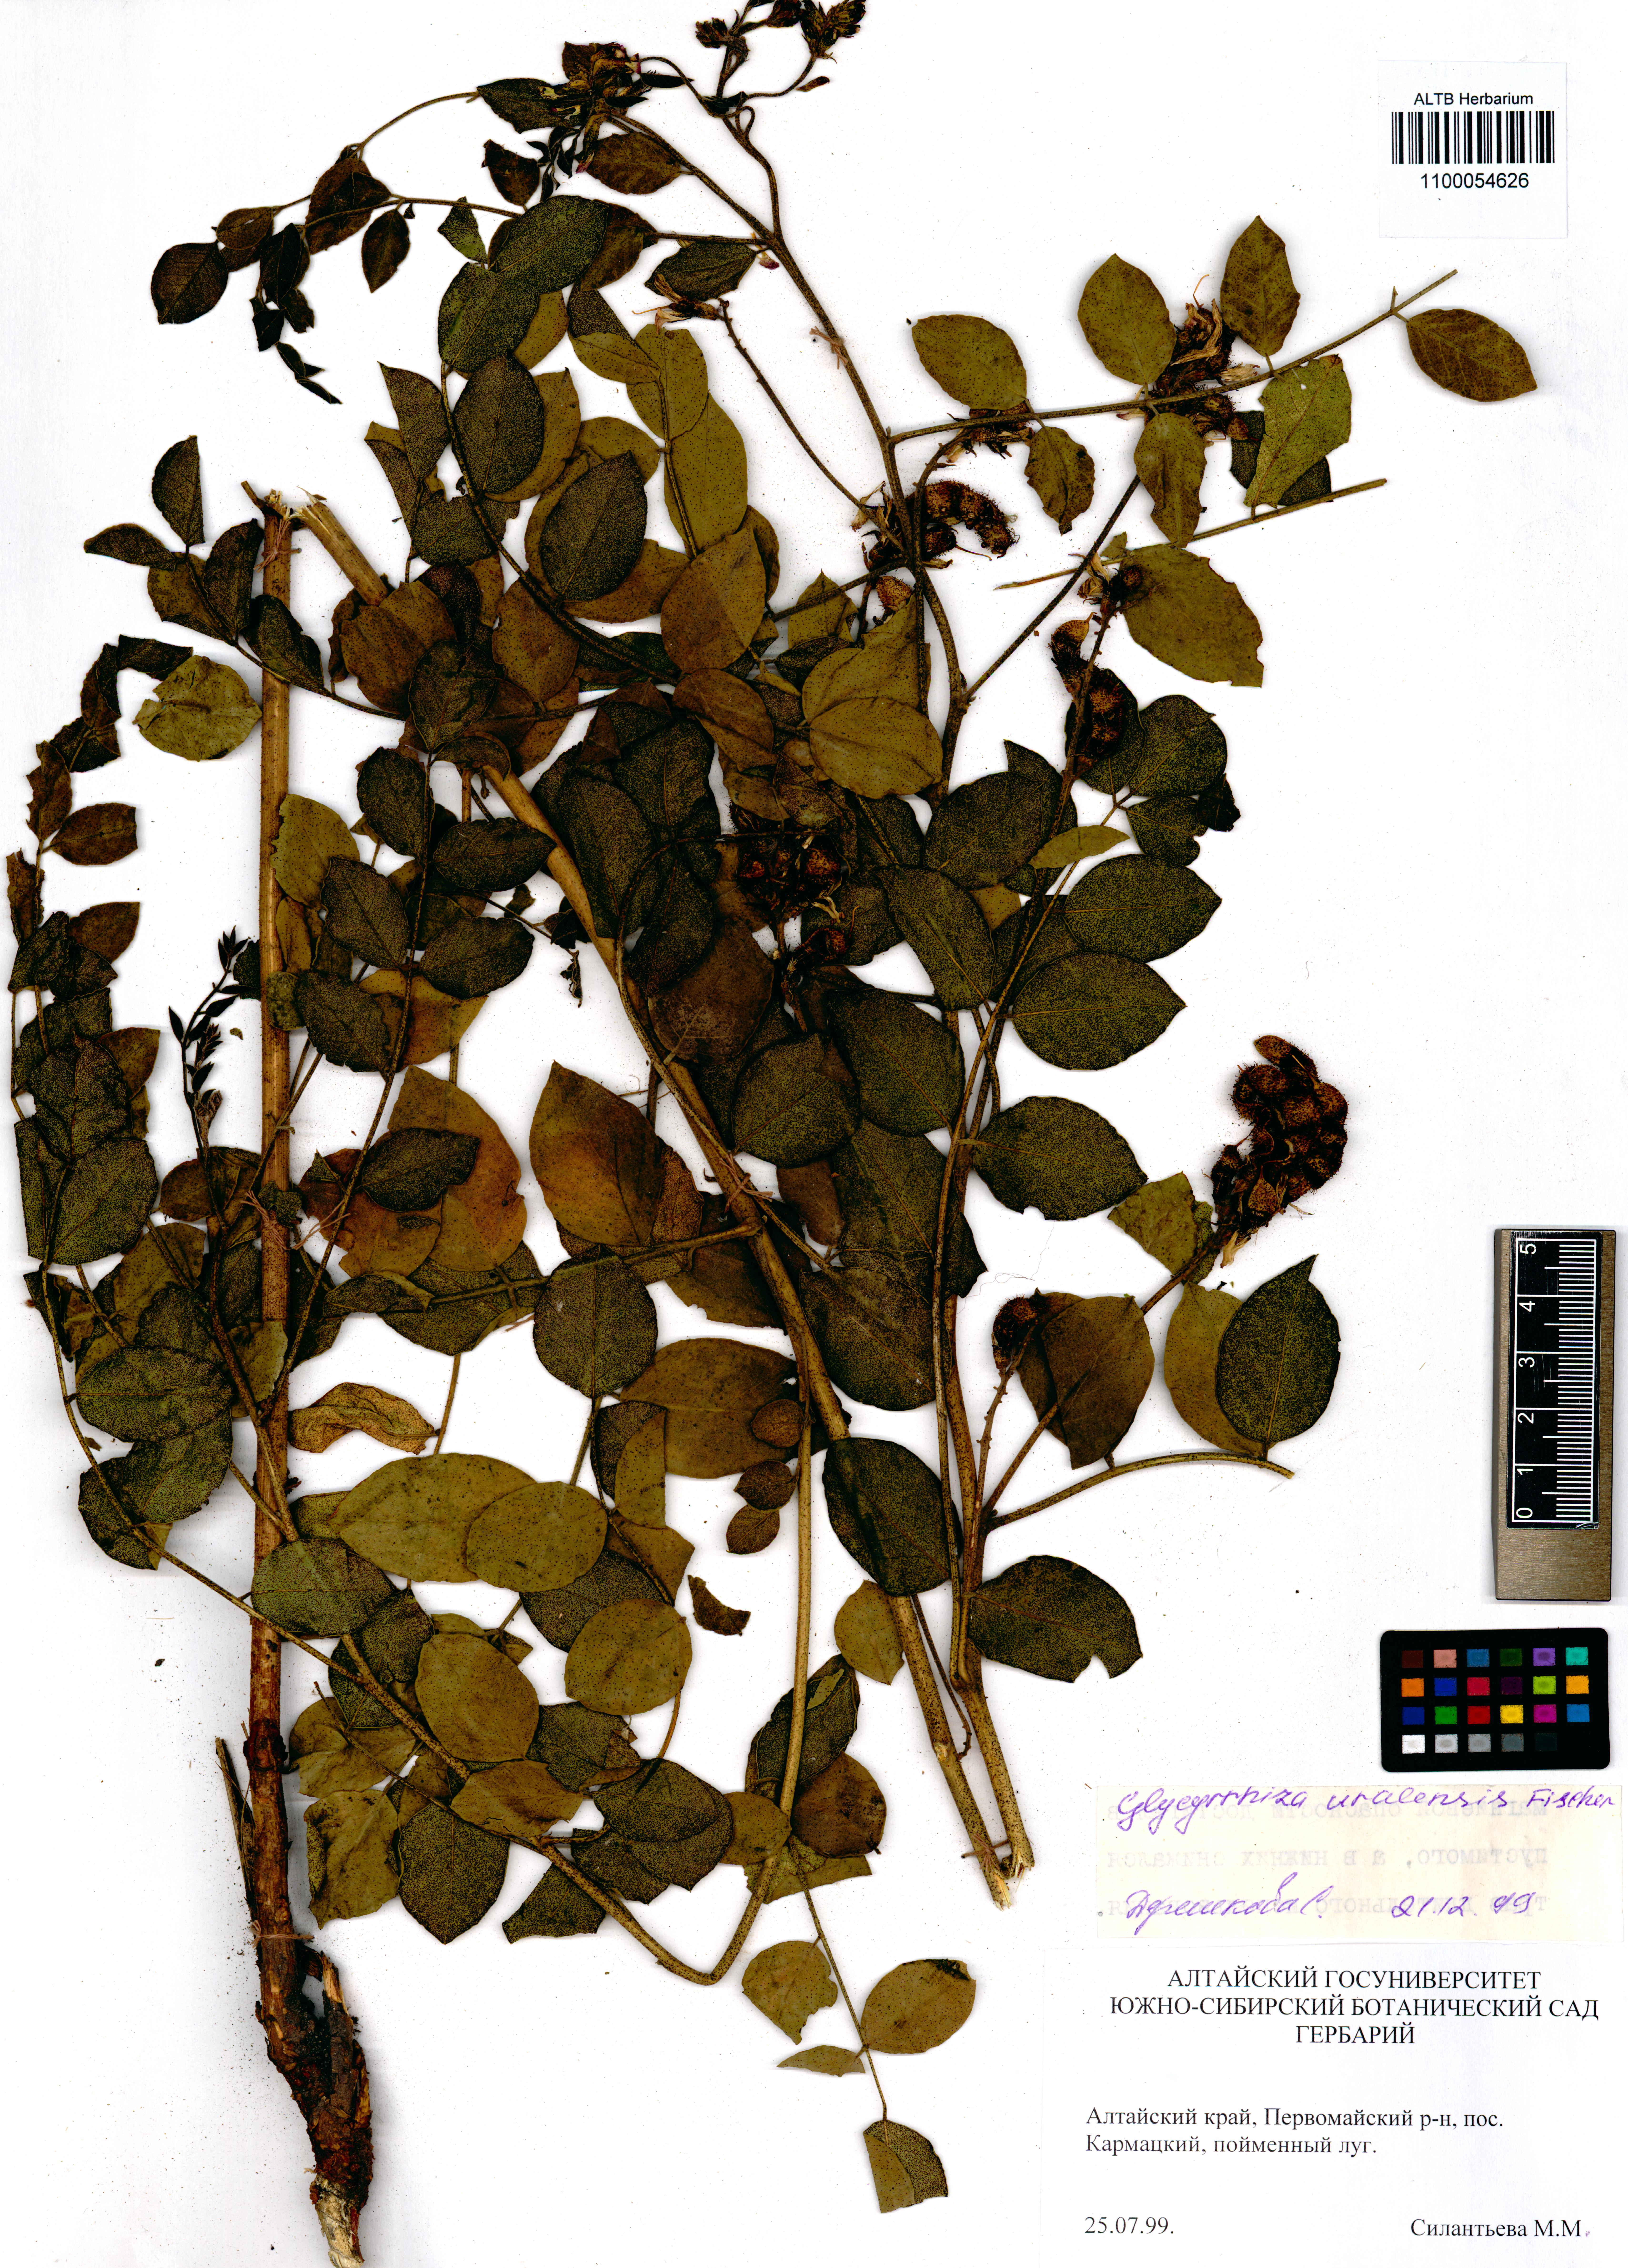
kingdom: Plantae
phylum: Tracheophyta
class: Magnoliopsida
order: Fabales
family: Fabaceae
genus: Glycyrrhiza
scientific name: Glycyrrhiza uralensis
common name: Chinese licorice
